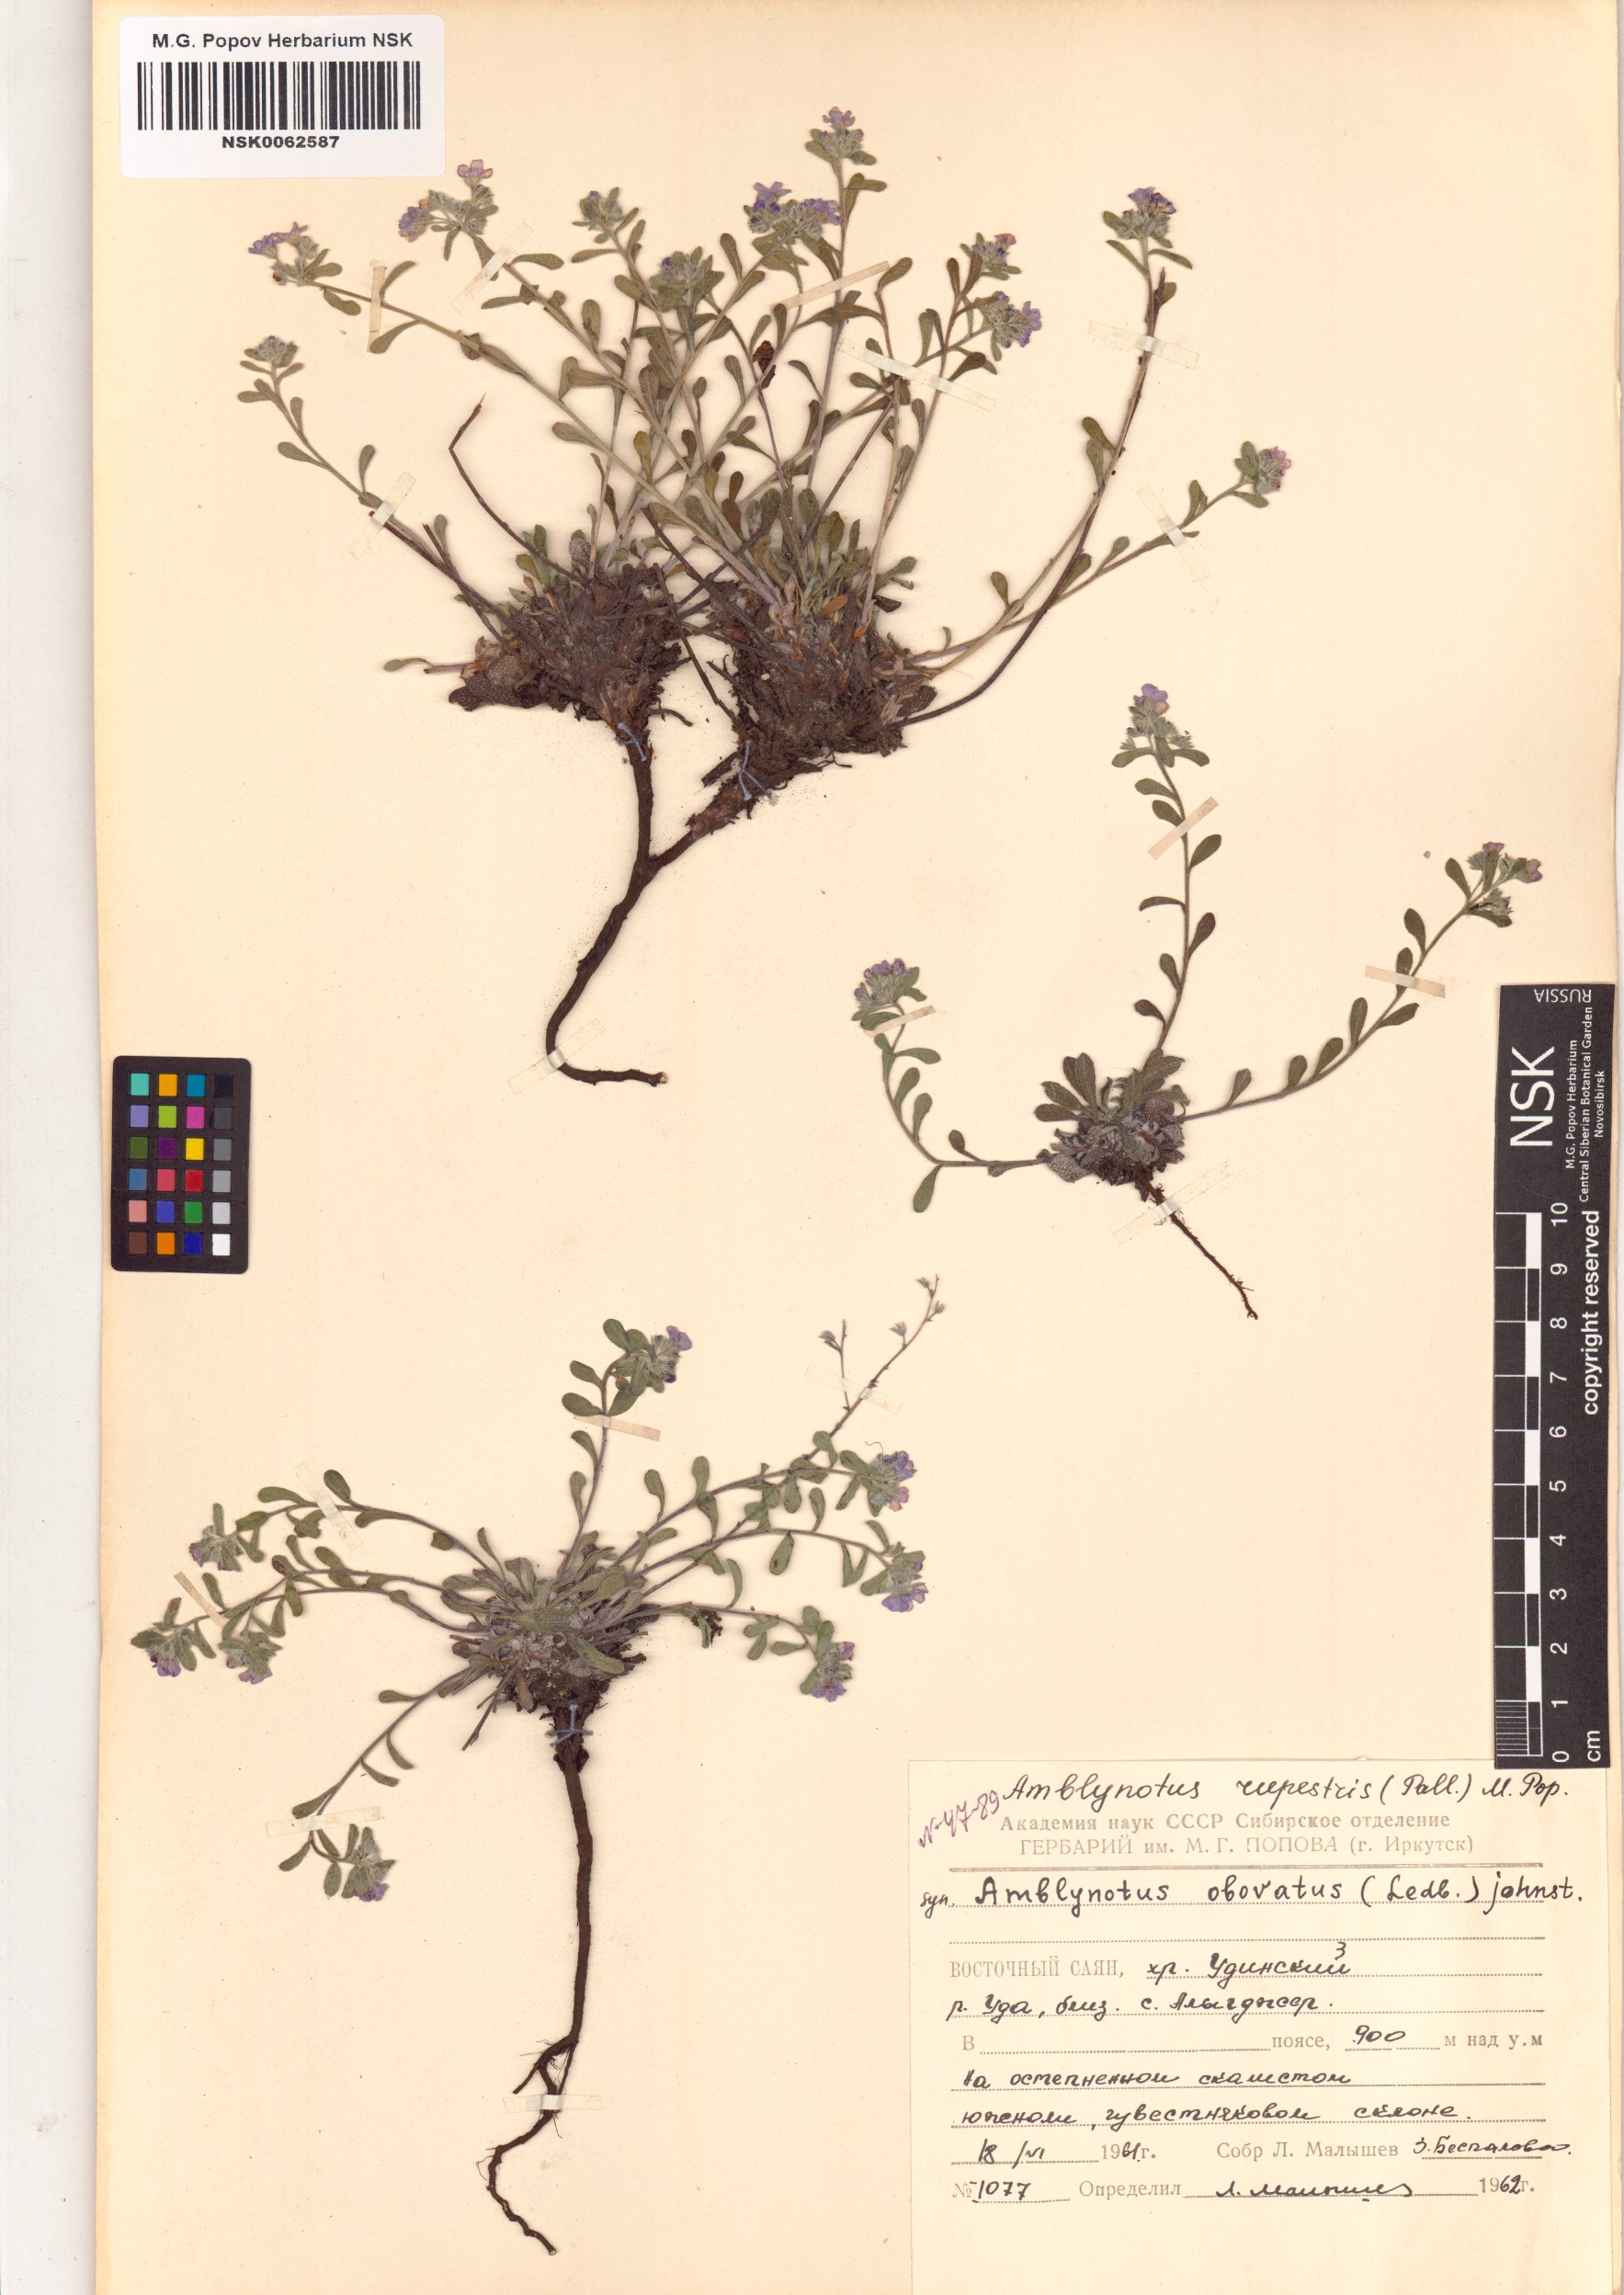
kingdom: Plantae
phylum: Tracheophyta
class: Magnoliopsida
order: Boraginales
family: Boraginaceae
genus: Eritrichium
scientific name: Eritrichium rupestre
